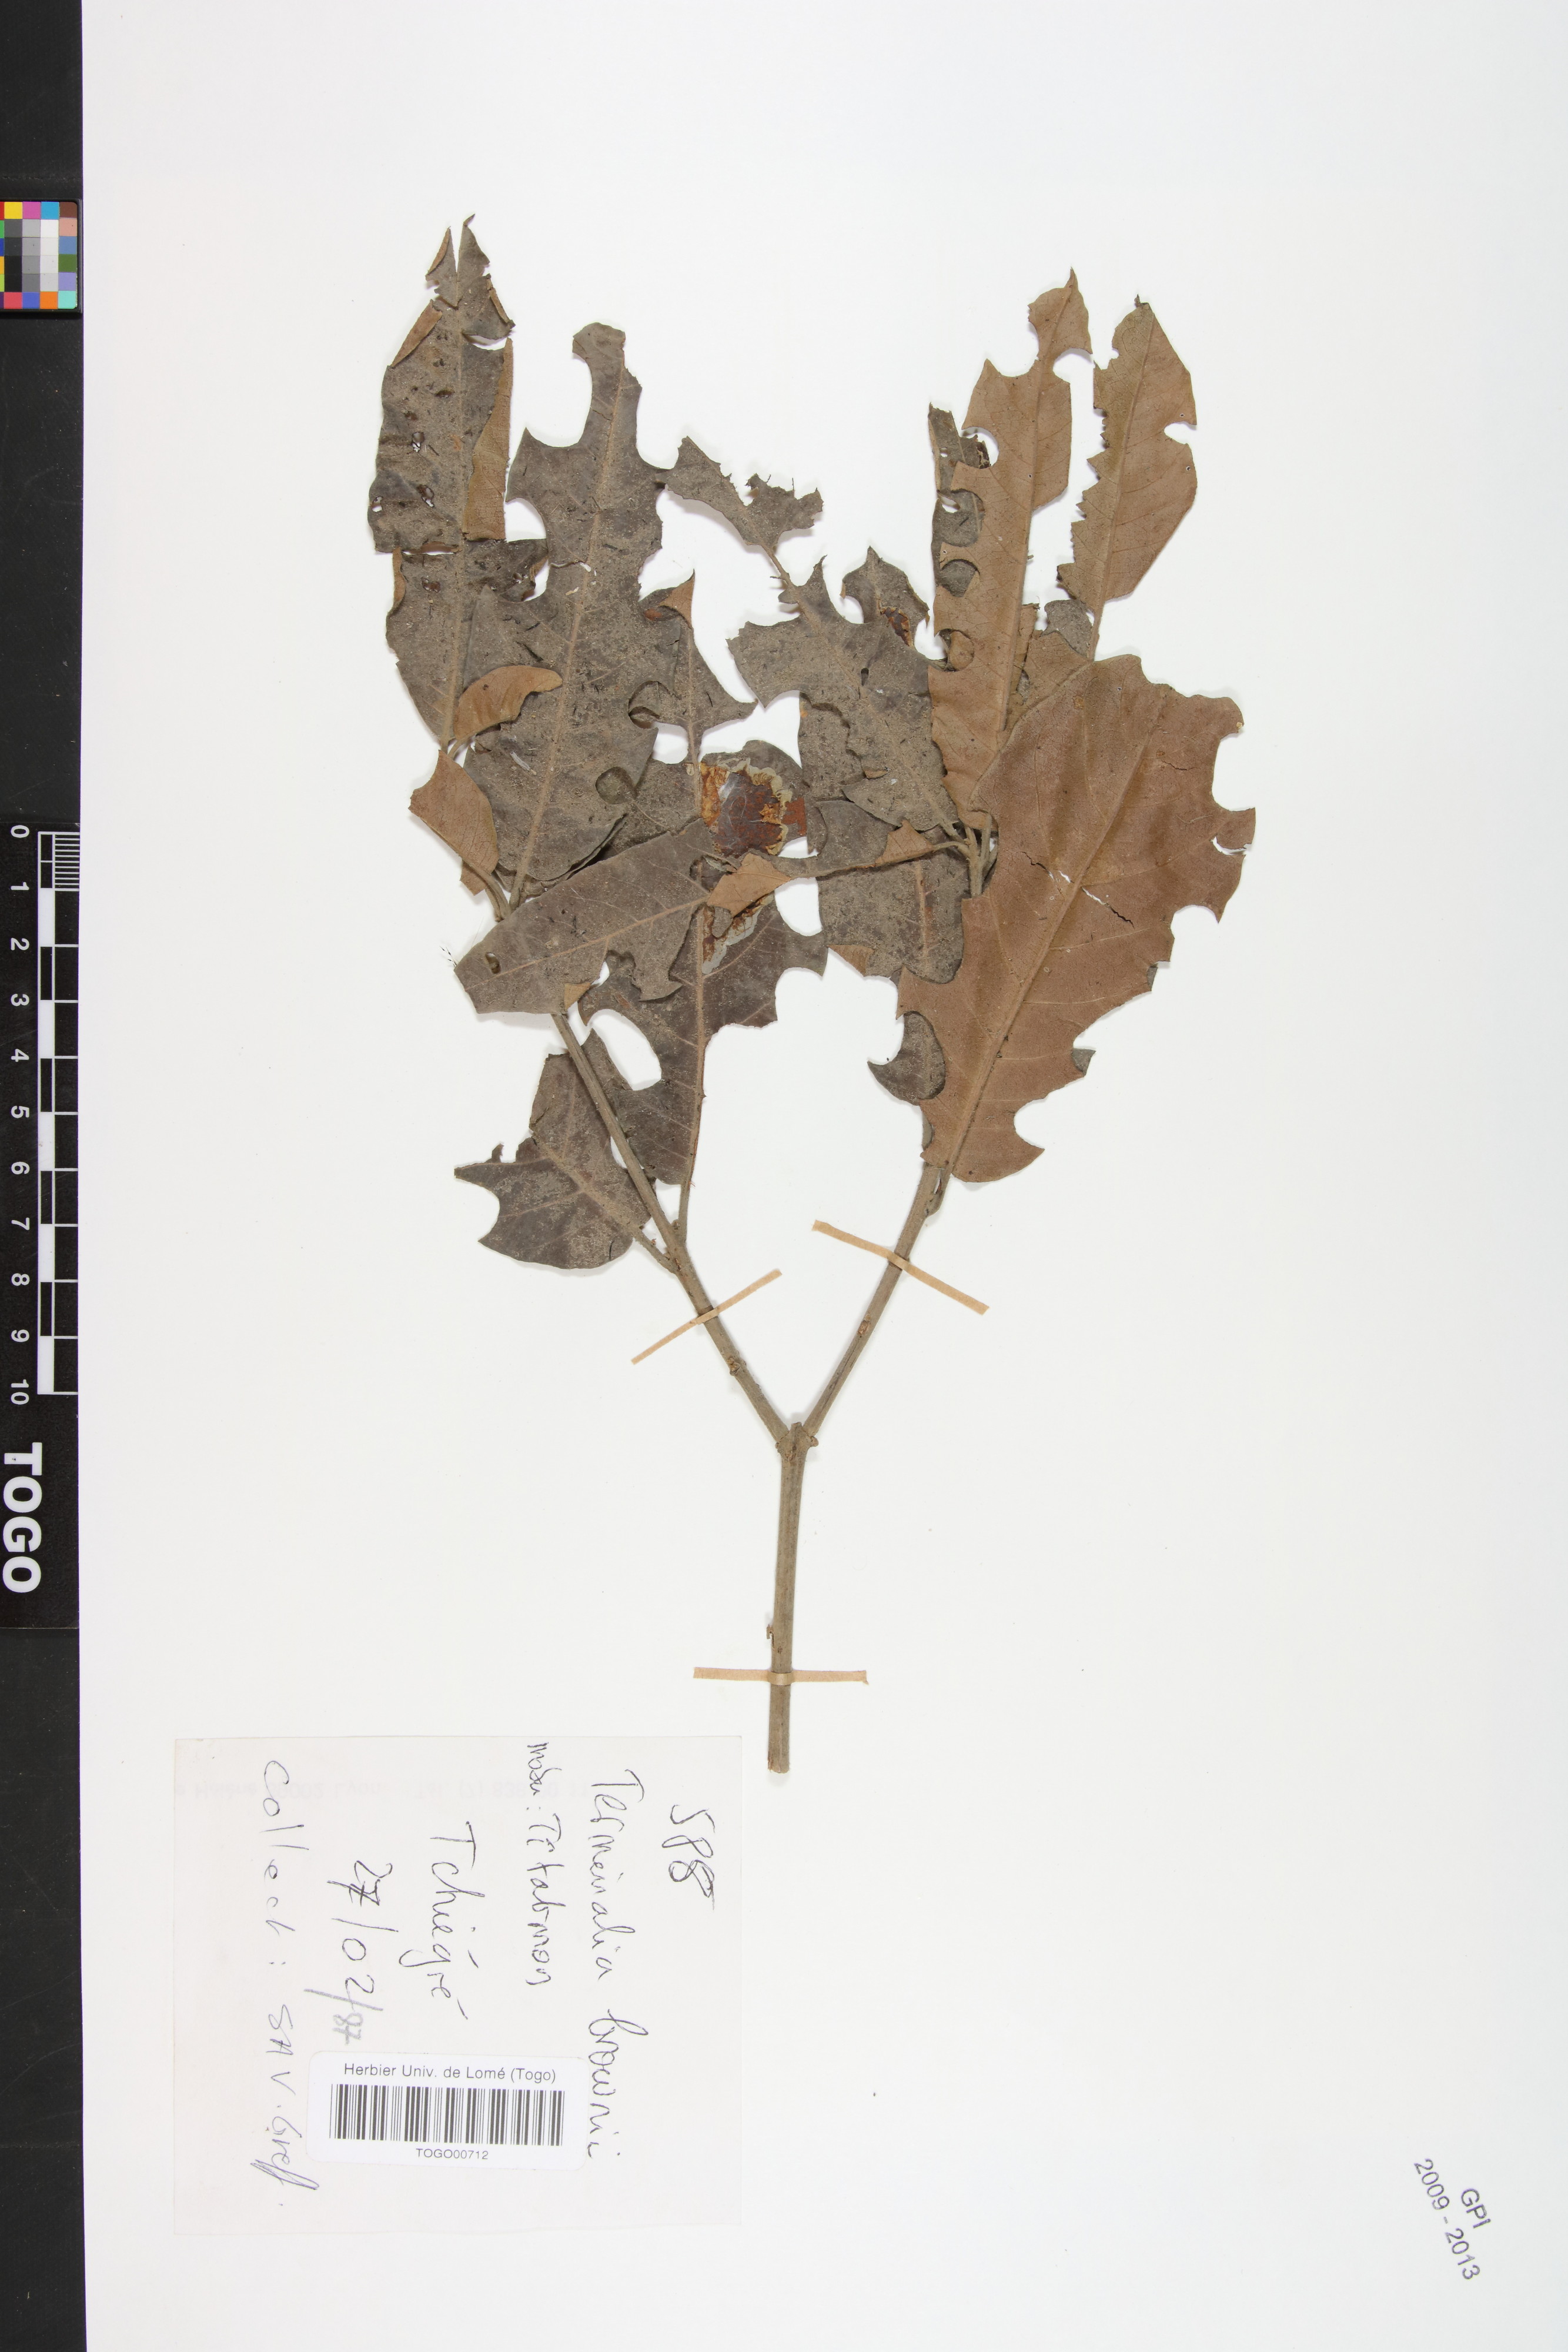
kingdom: Plantae
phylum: Tracheophyta
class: Magnoliopsida
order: Myrtales
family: Combretaceae
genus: Terminalia
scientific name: Terminalia brownii
